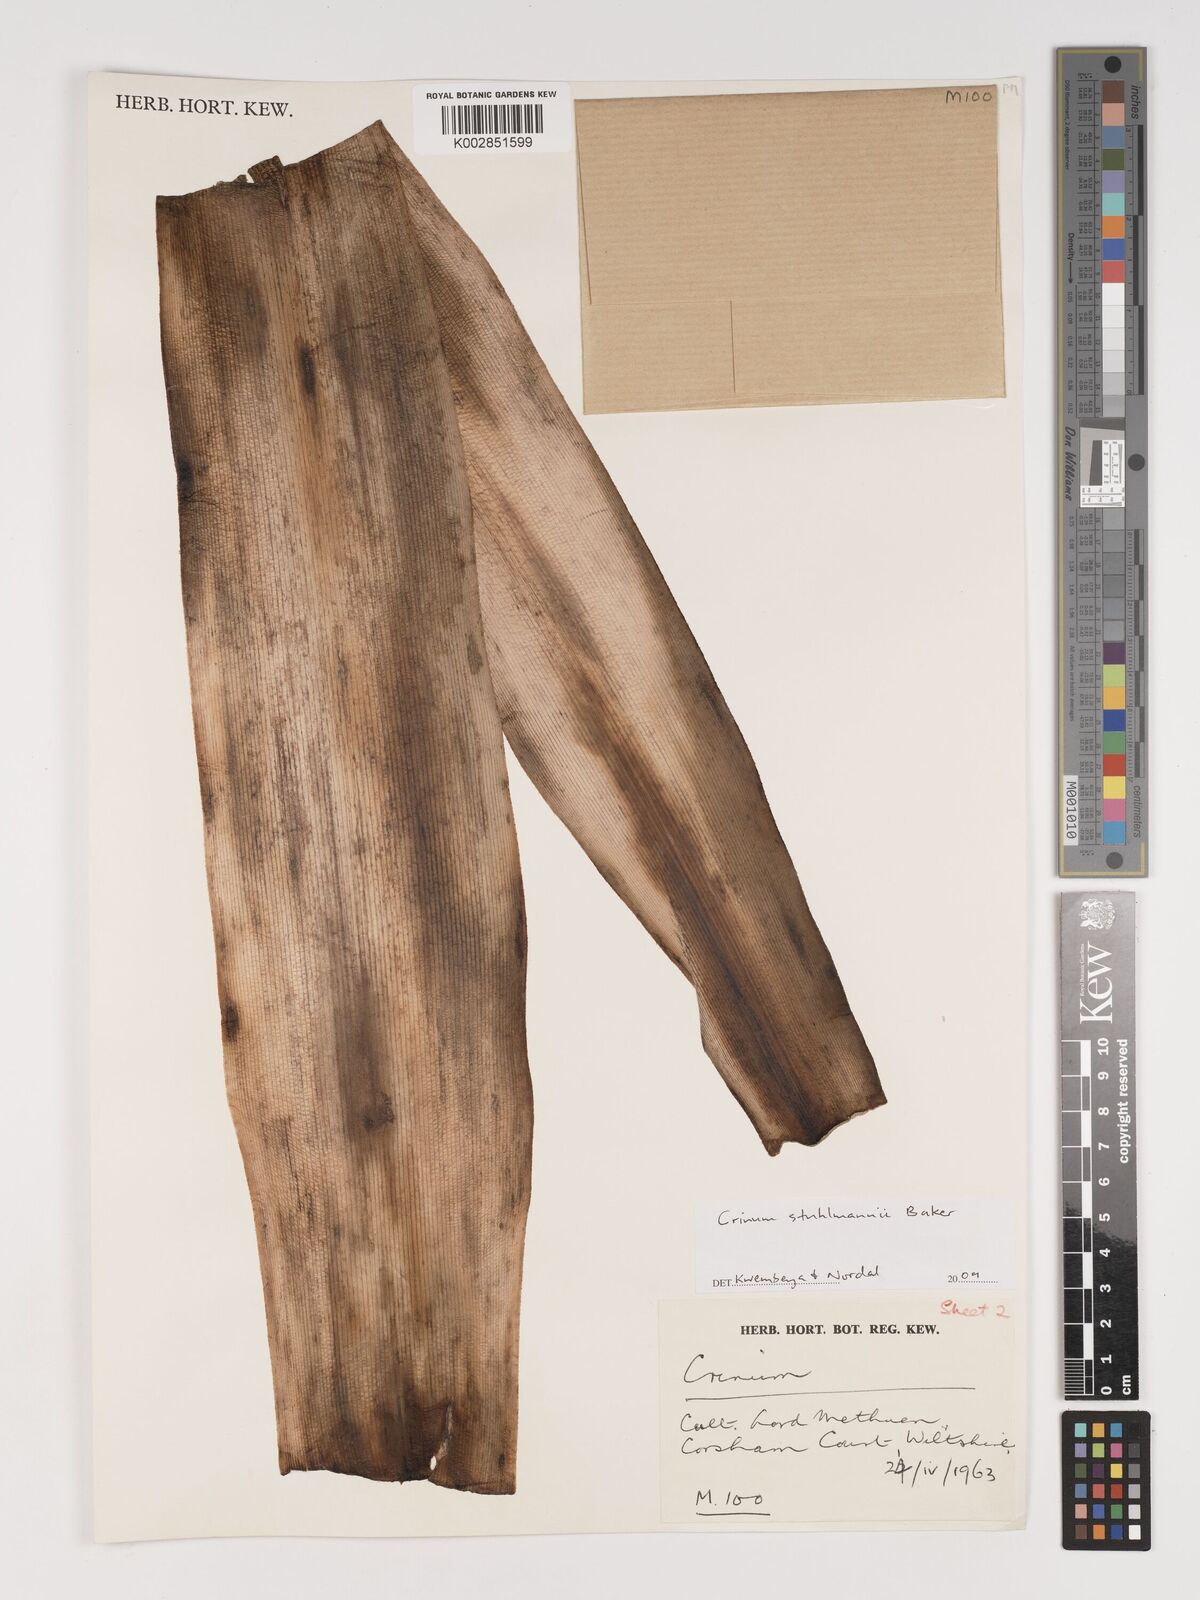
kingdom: Plantae
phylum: Tracheophyta
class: Liliopsida
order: Asparagales
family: Amaryllidaceae
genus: Crinum
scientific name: Crinum macowanii
